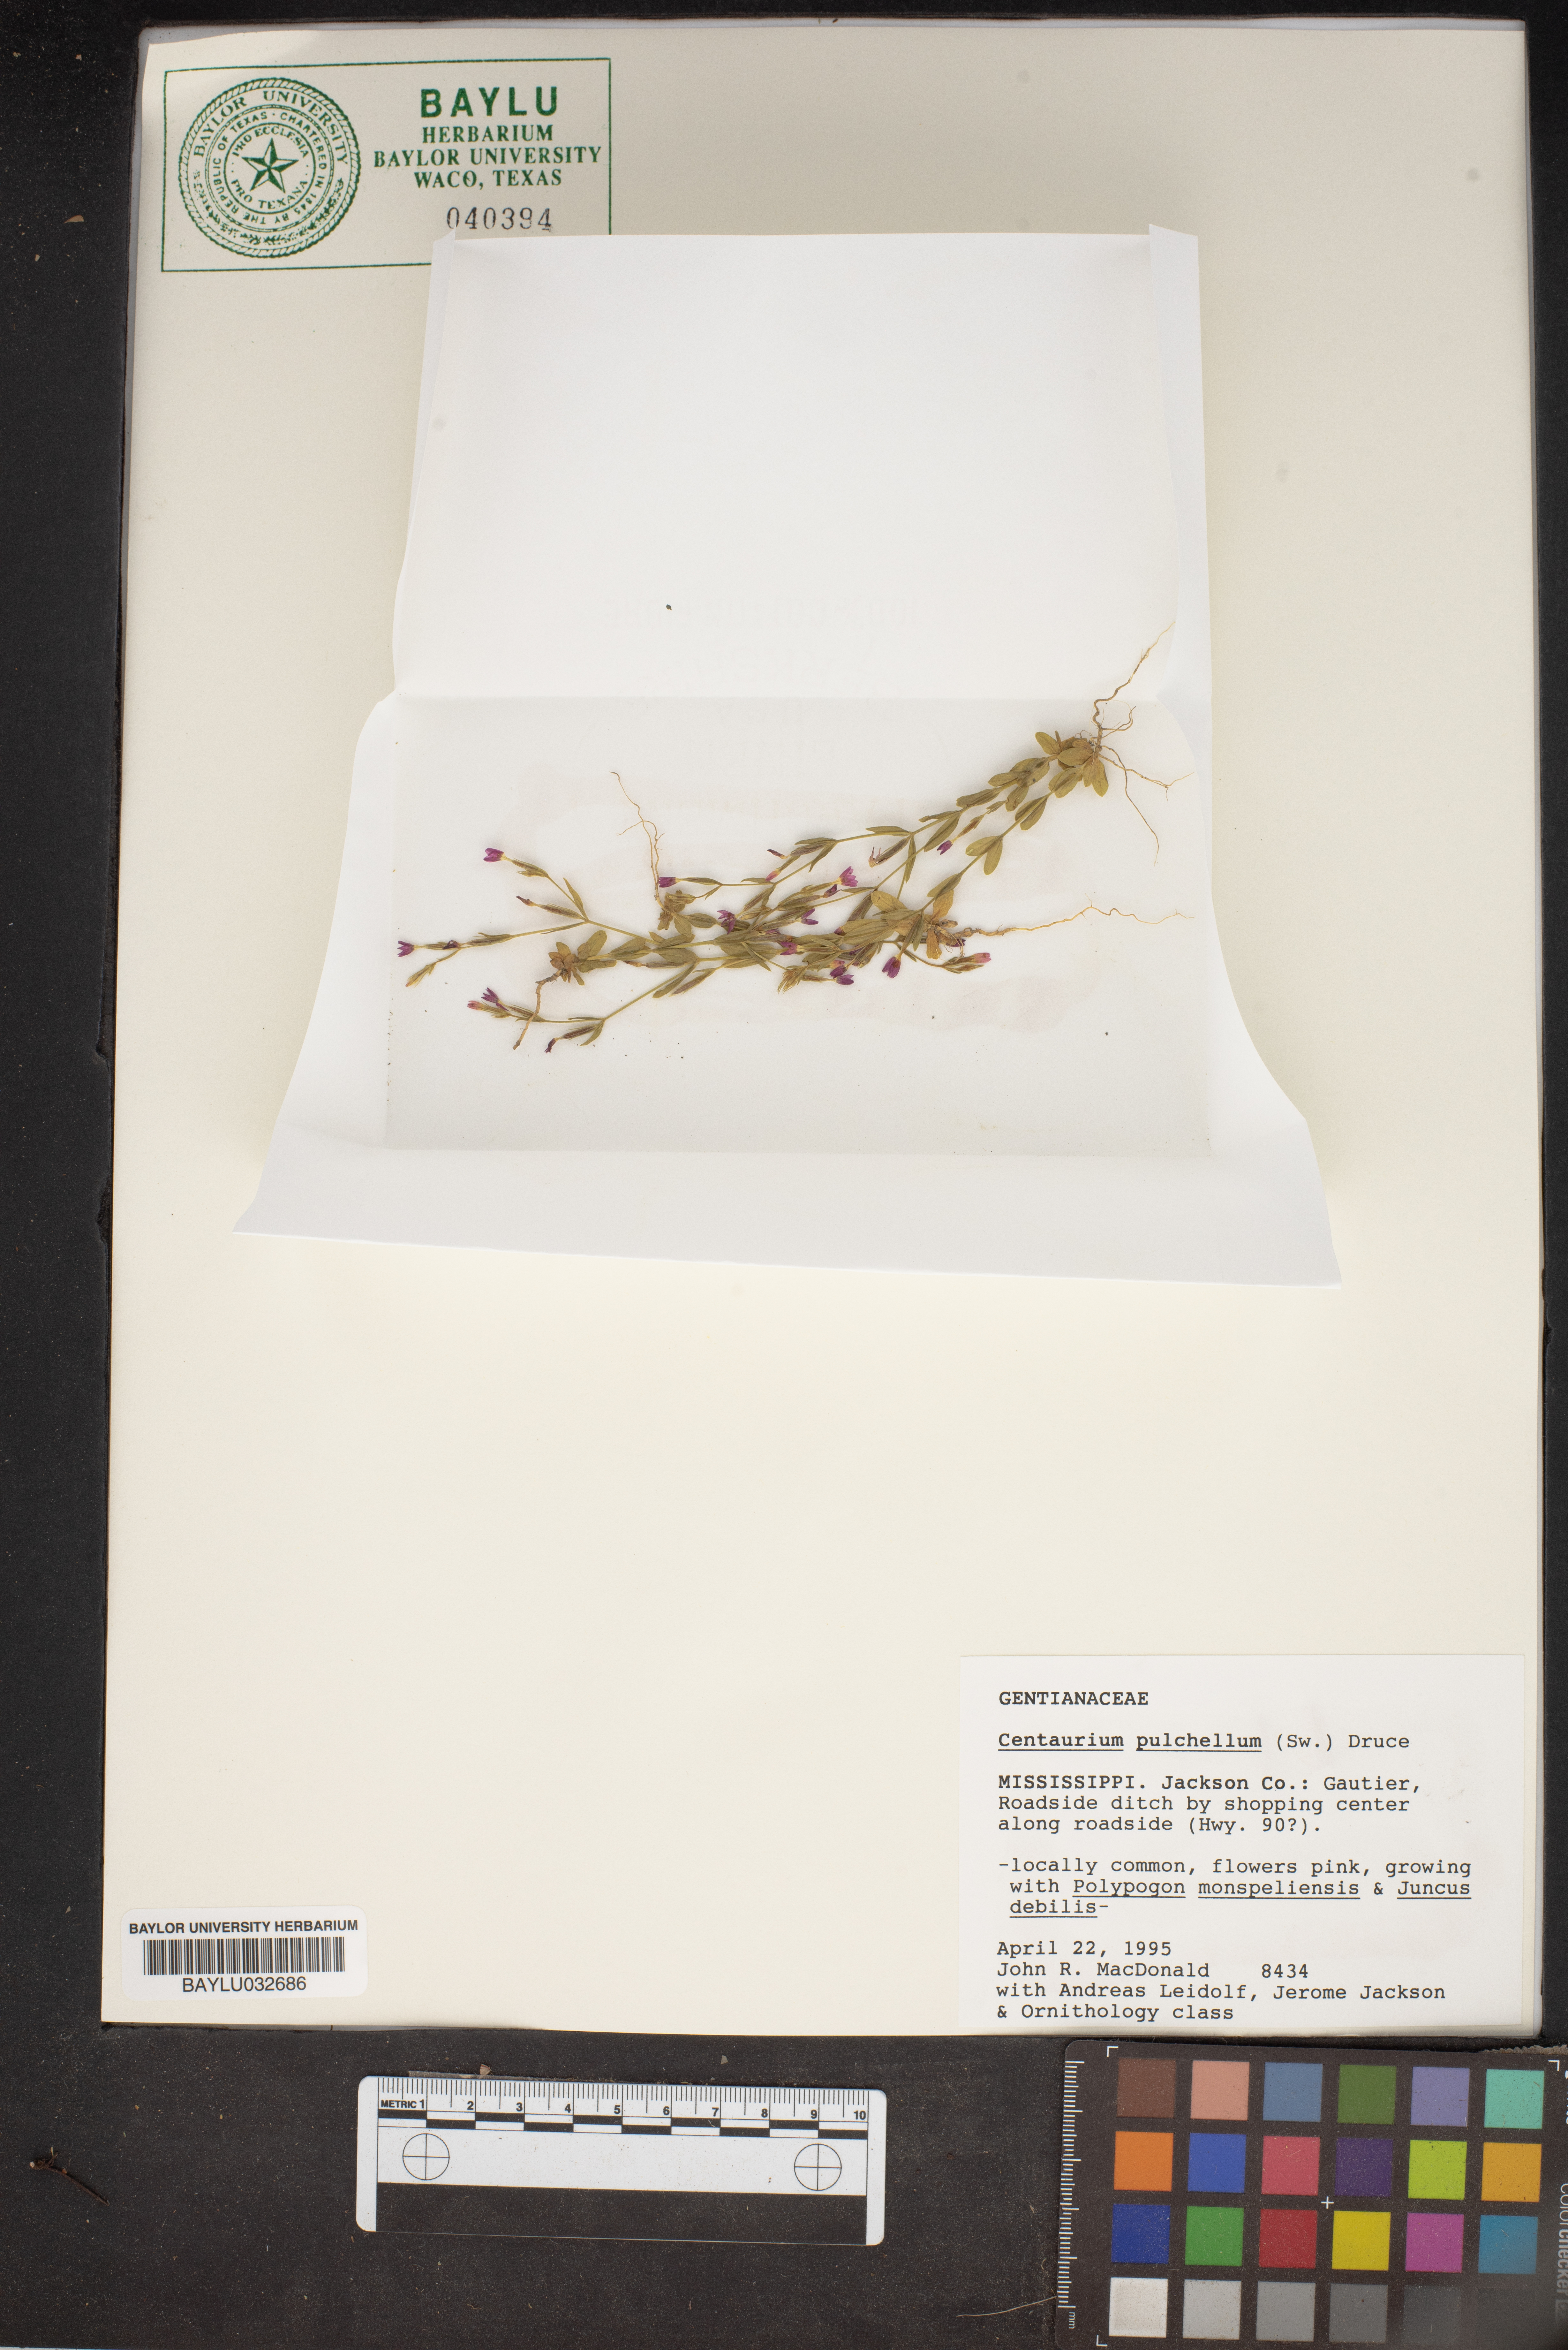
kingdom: Plantae
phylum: Tracheophyta
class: Magnoliopsida
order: Gentianales
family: Gentianaceae
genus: Centaurium
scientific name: Centaurium pulchellum
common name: Lesser centaury
